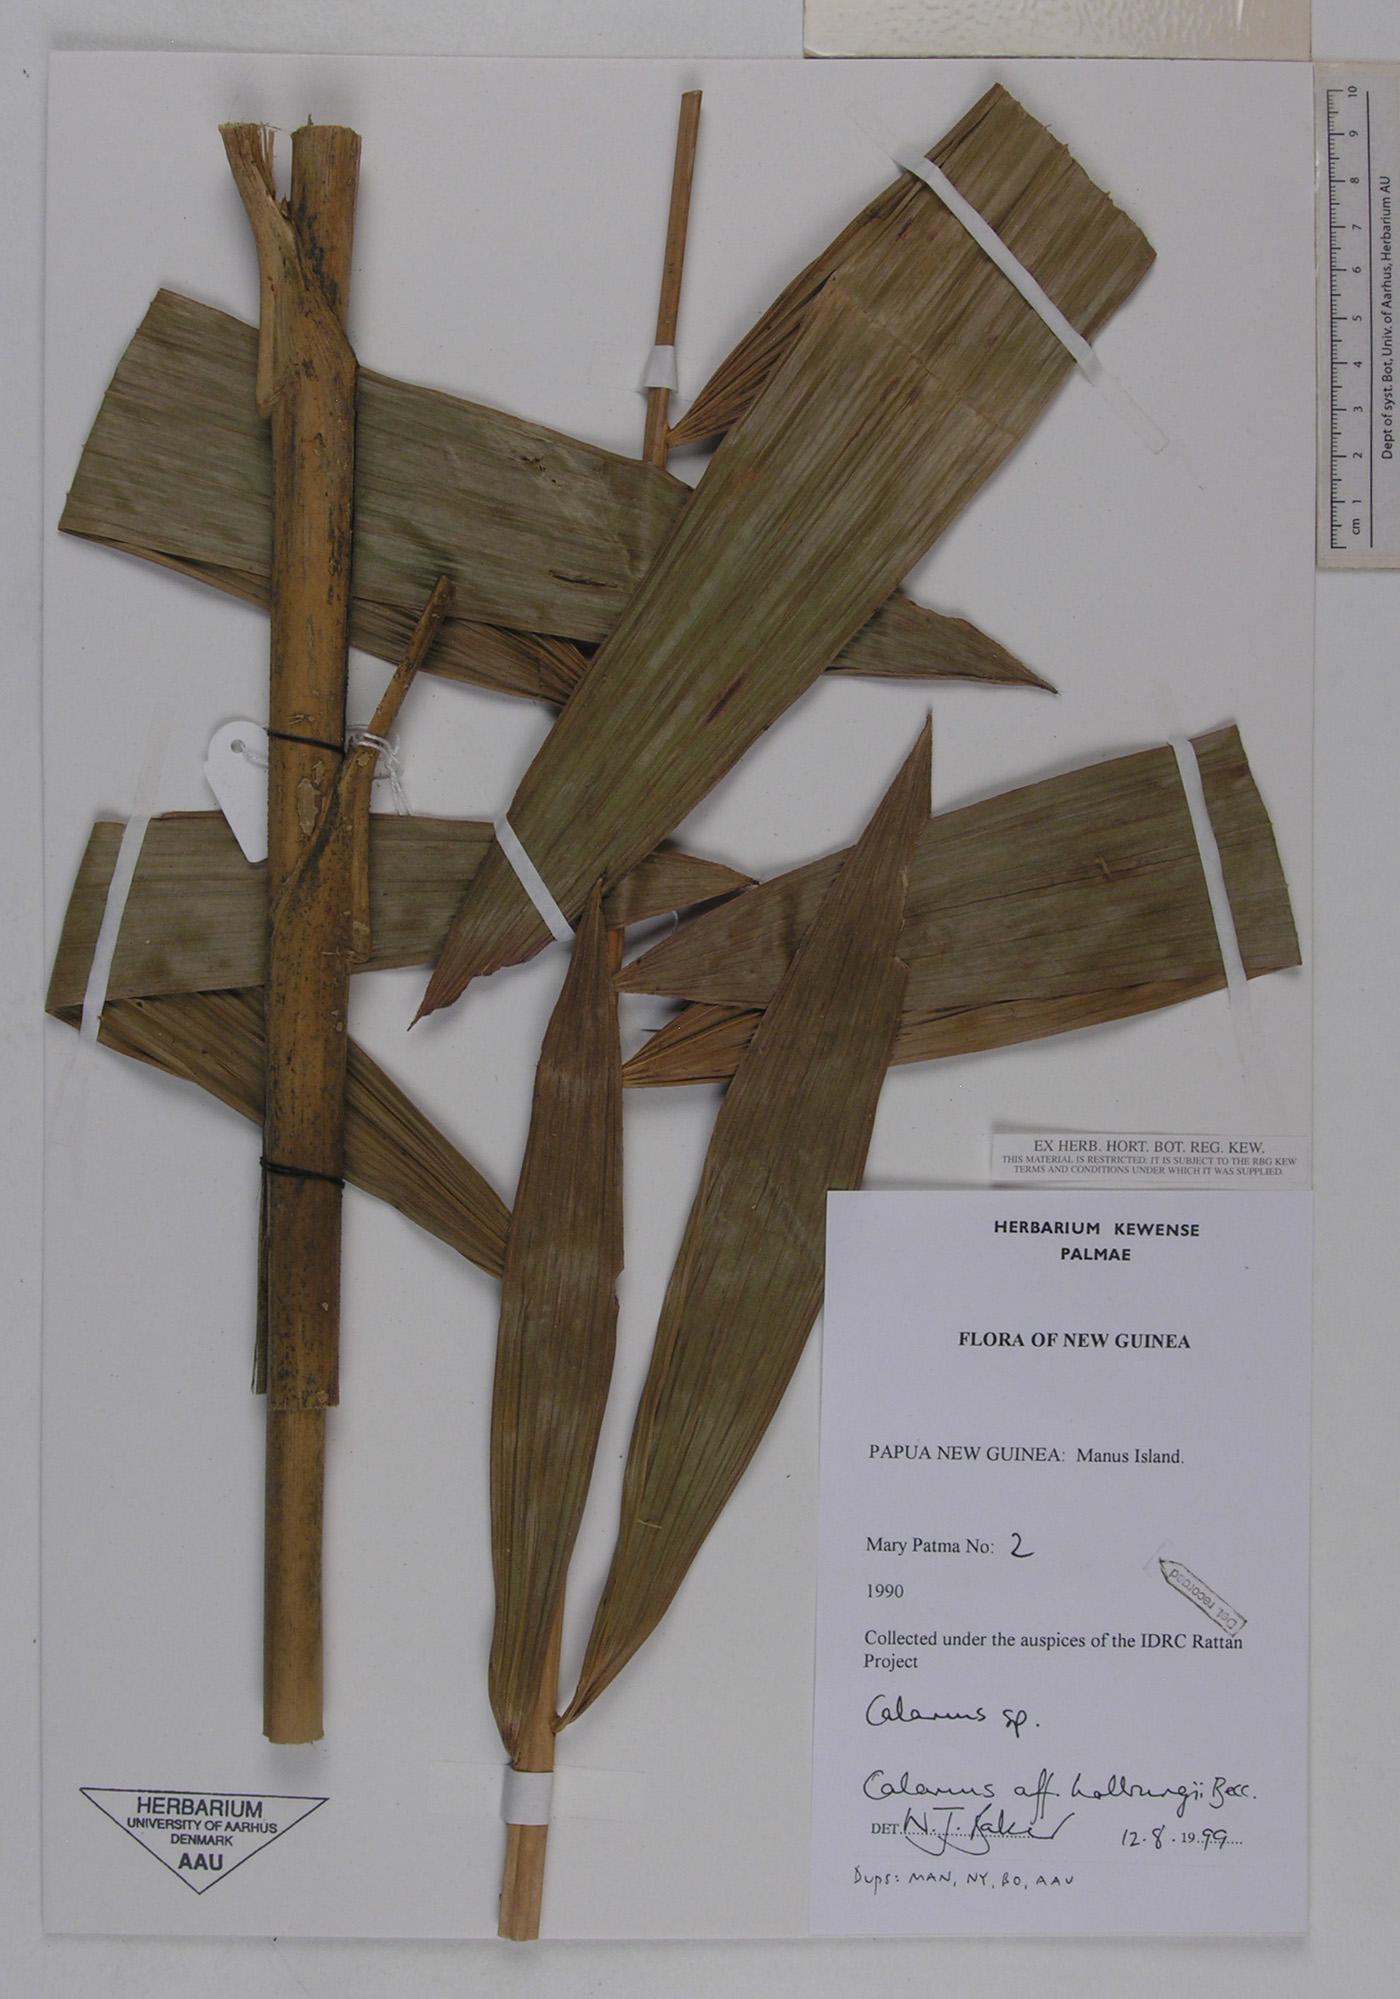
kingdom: Plantae
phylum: Tracheophyta
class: Liliopsida
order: Arecales
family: Arecaceae
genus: Calamus
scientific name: Calamus aruensis
